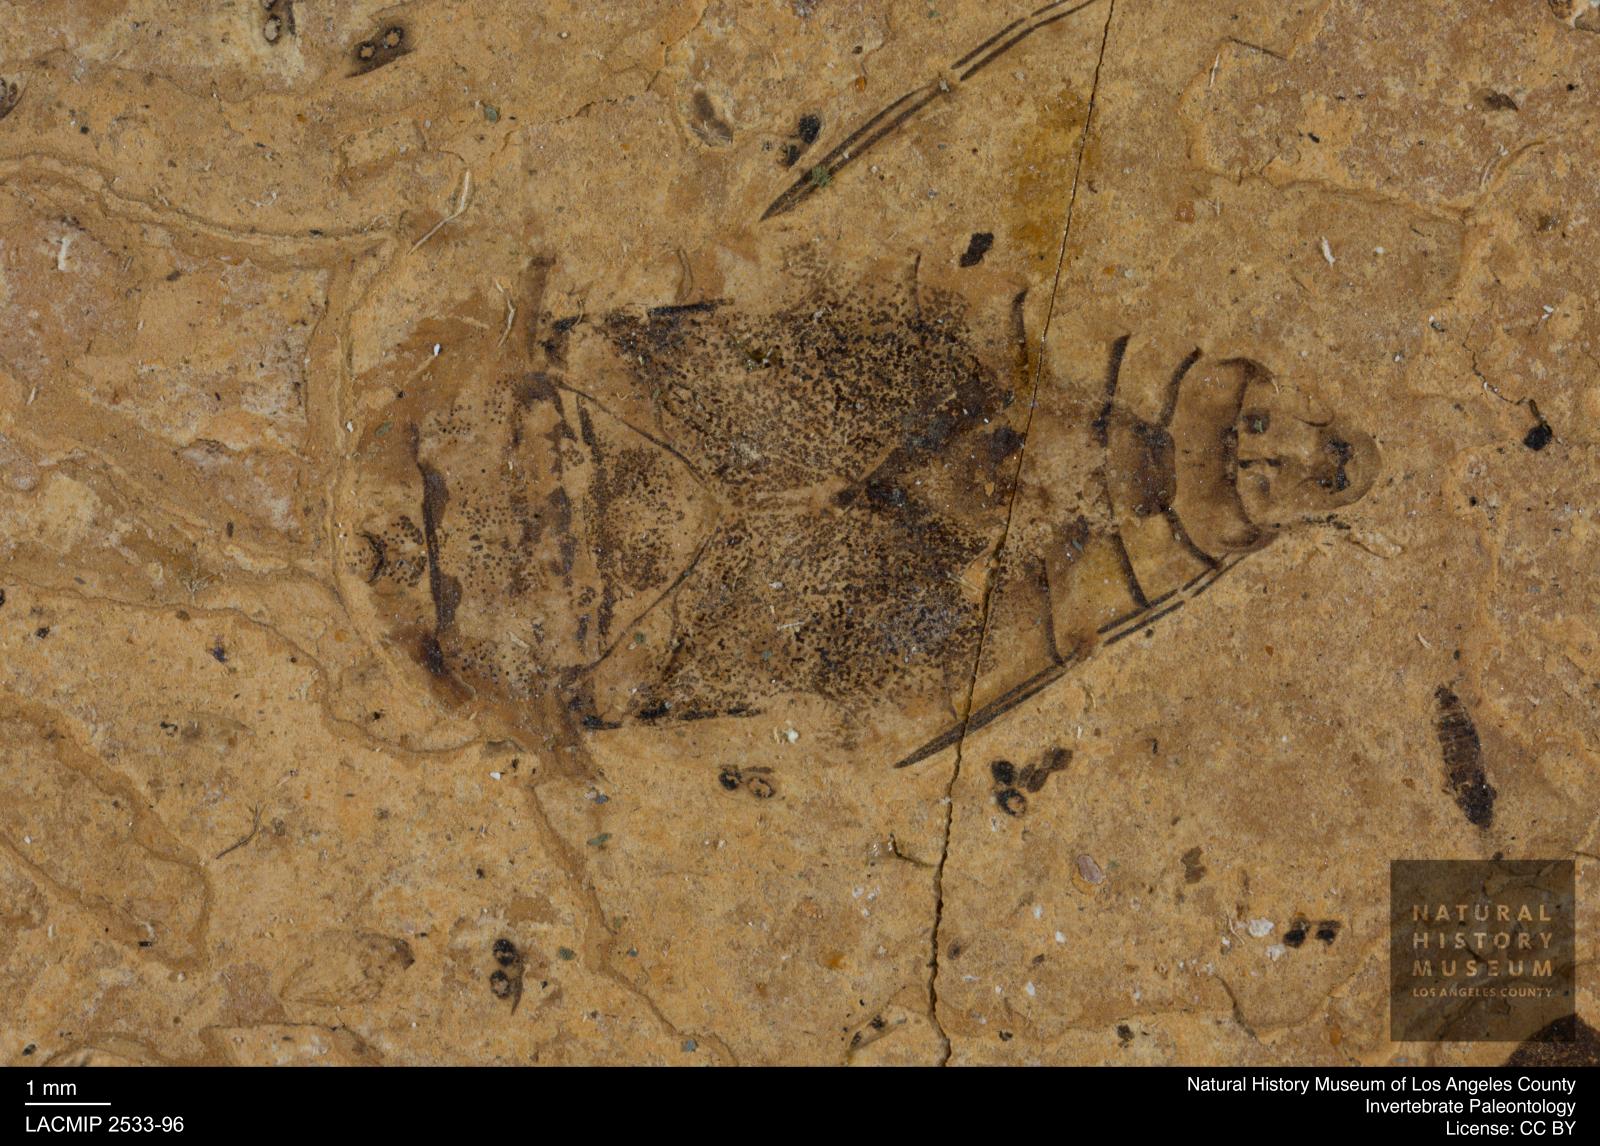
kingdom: Animalia
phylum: Arthropoda
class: Insecta
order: Hemiptera
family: Naucoridae
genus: Naucoris
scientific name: Naucoris rottensis
